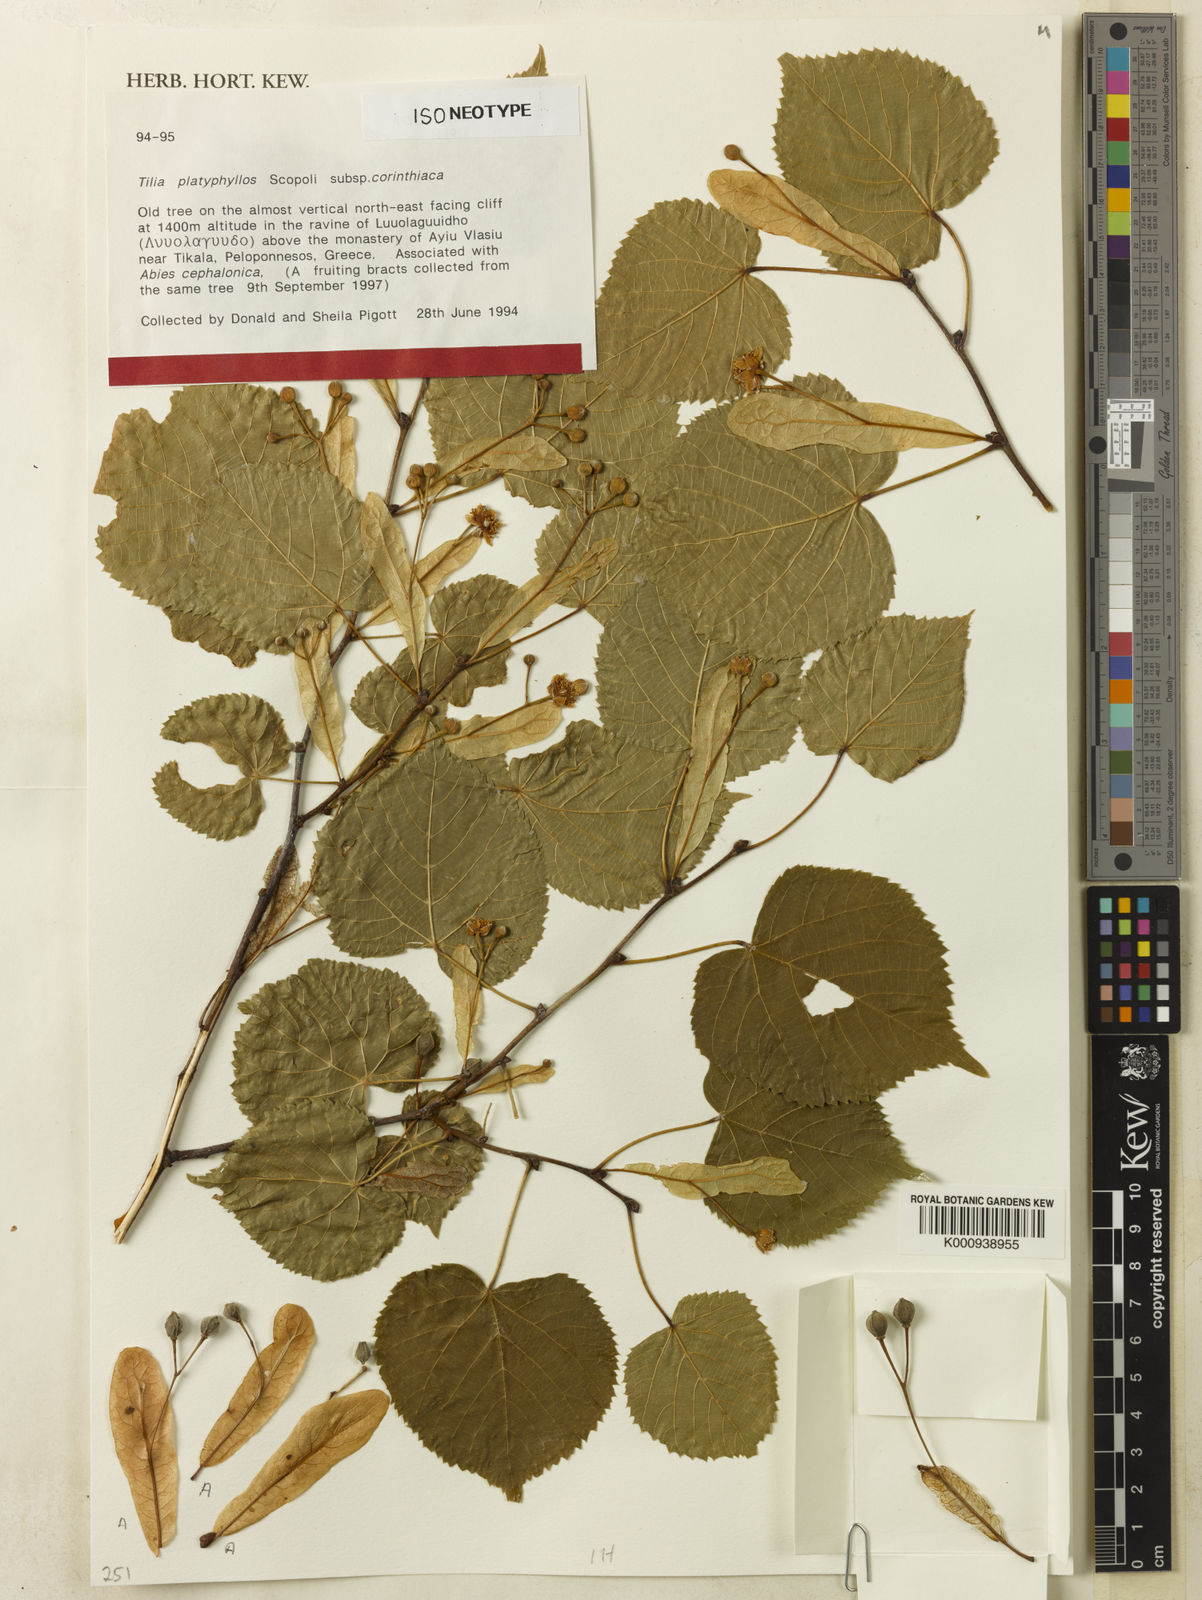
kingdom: Plantae
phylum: Tracheophyta
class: Magnoliopsida
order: Malvales
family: Malvaceae
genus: Tilia
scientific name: Tilia platyphyllos
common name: Large-leaved lime
